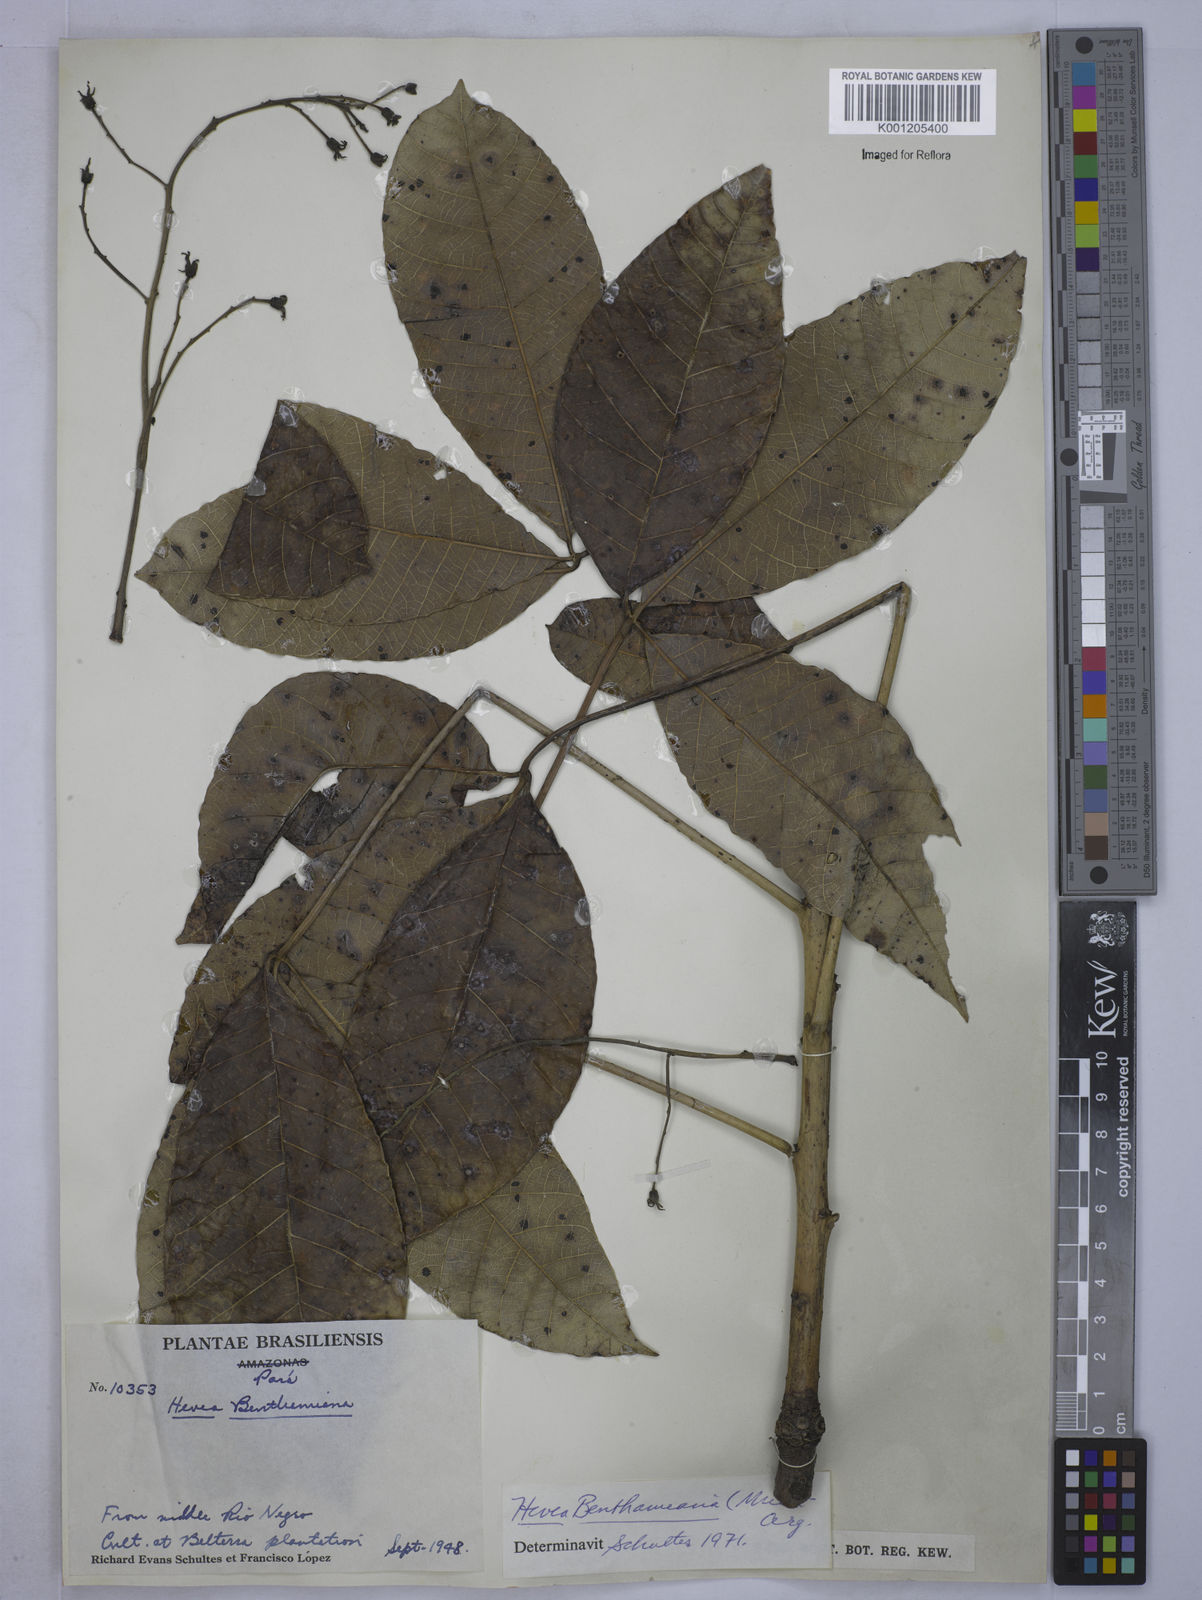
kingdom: Plantae
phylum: Tracheophyta
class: Magnoliopsida
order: Malpighiales
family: Euphorbiaceae
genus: Hevea
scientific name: Hevea
